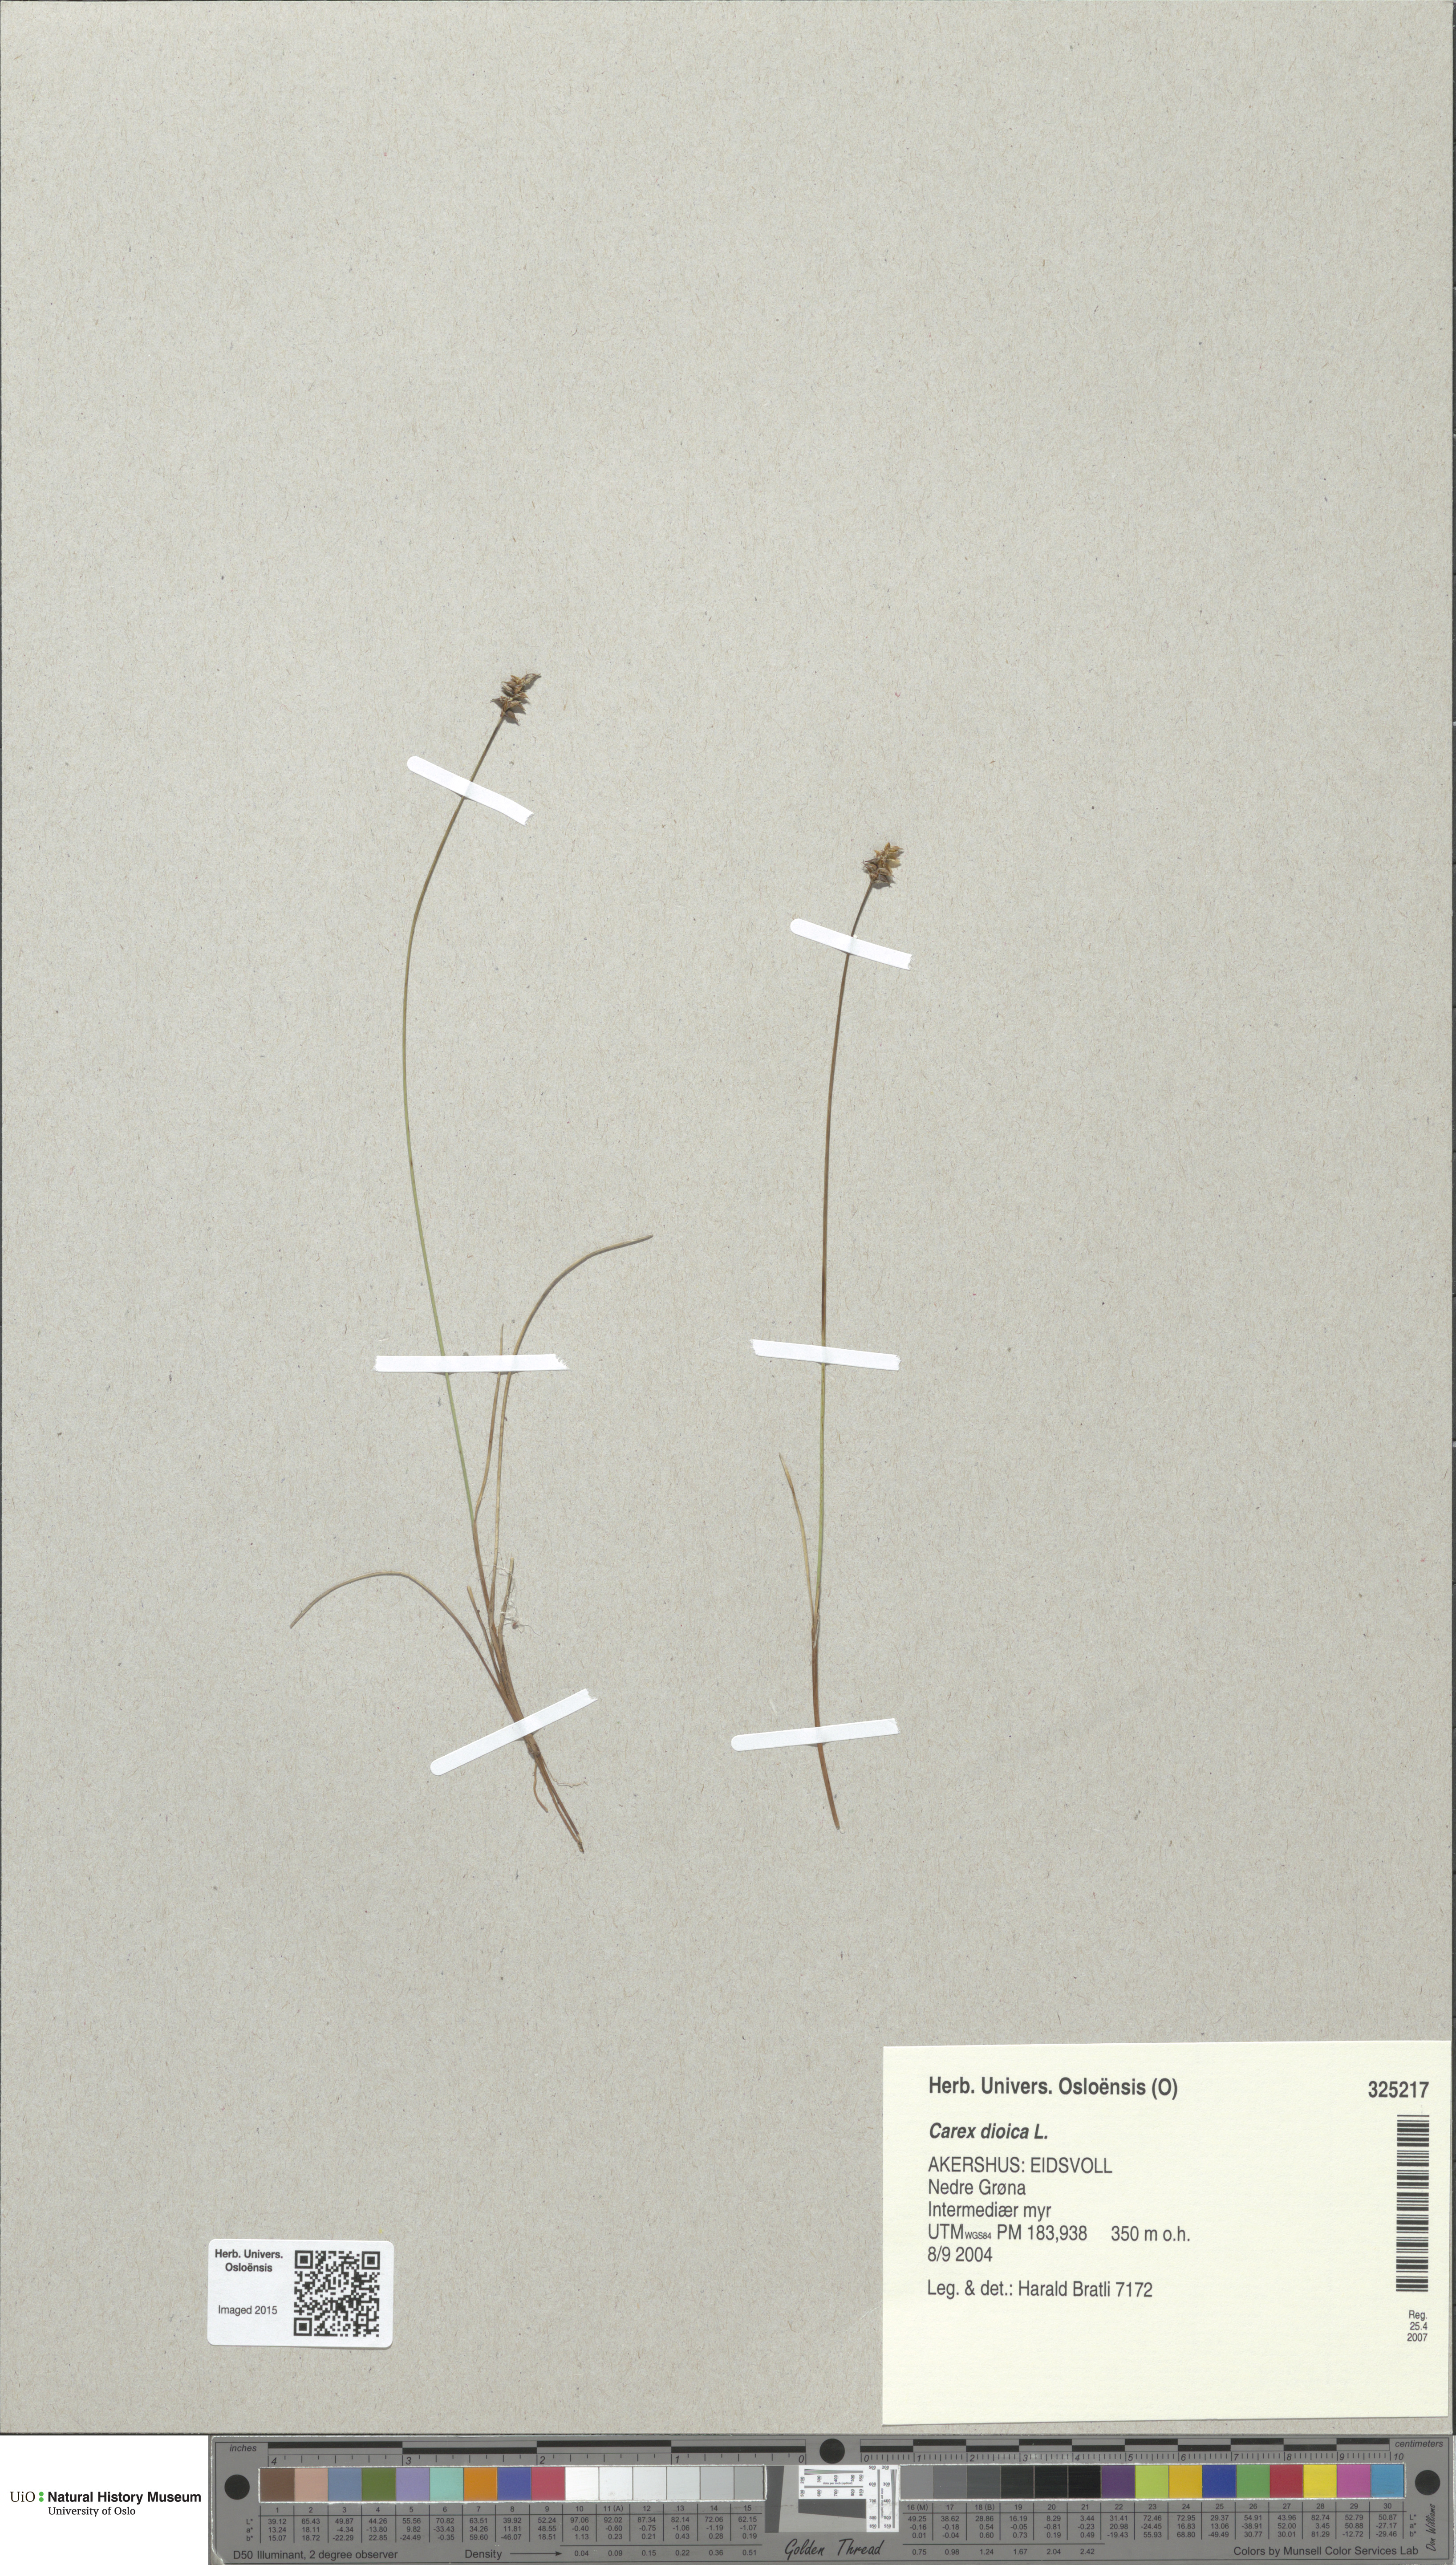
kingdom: Plantae
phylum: Tracheophyta
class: Liliopsida
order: Poales
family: Cyperaceae
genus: Carex
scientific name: Carex dioica
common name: Dioecious sedge
